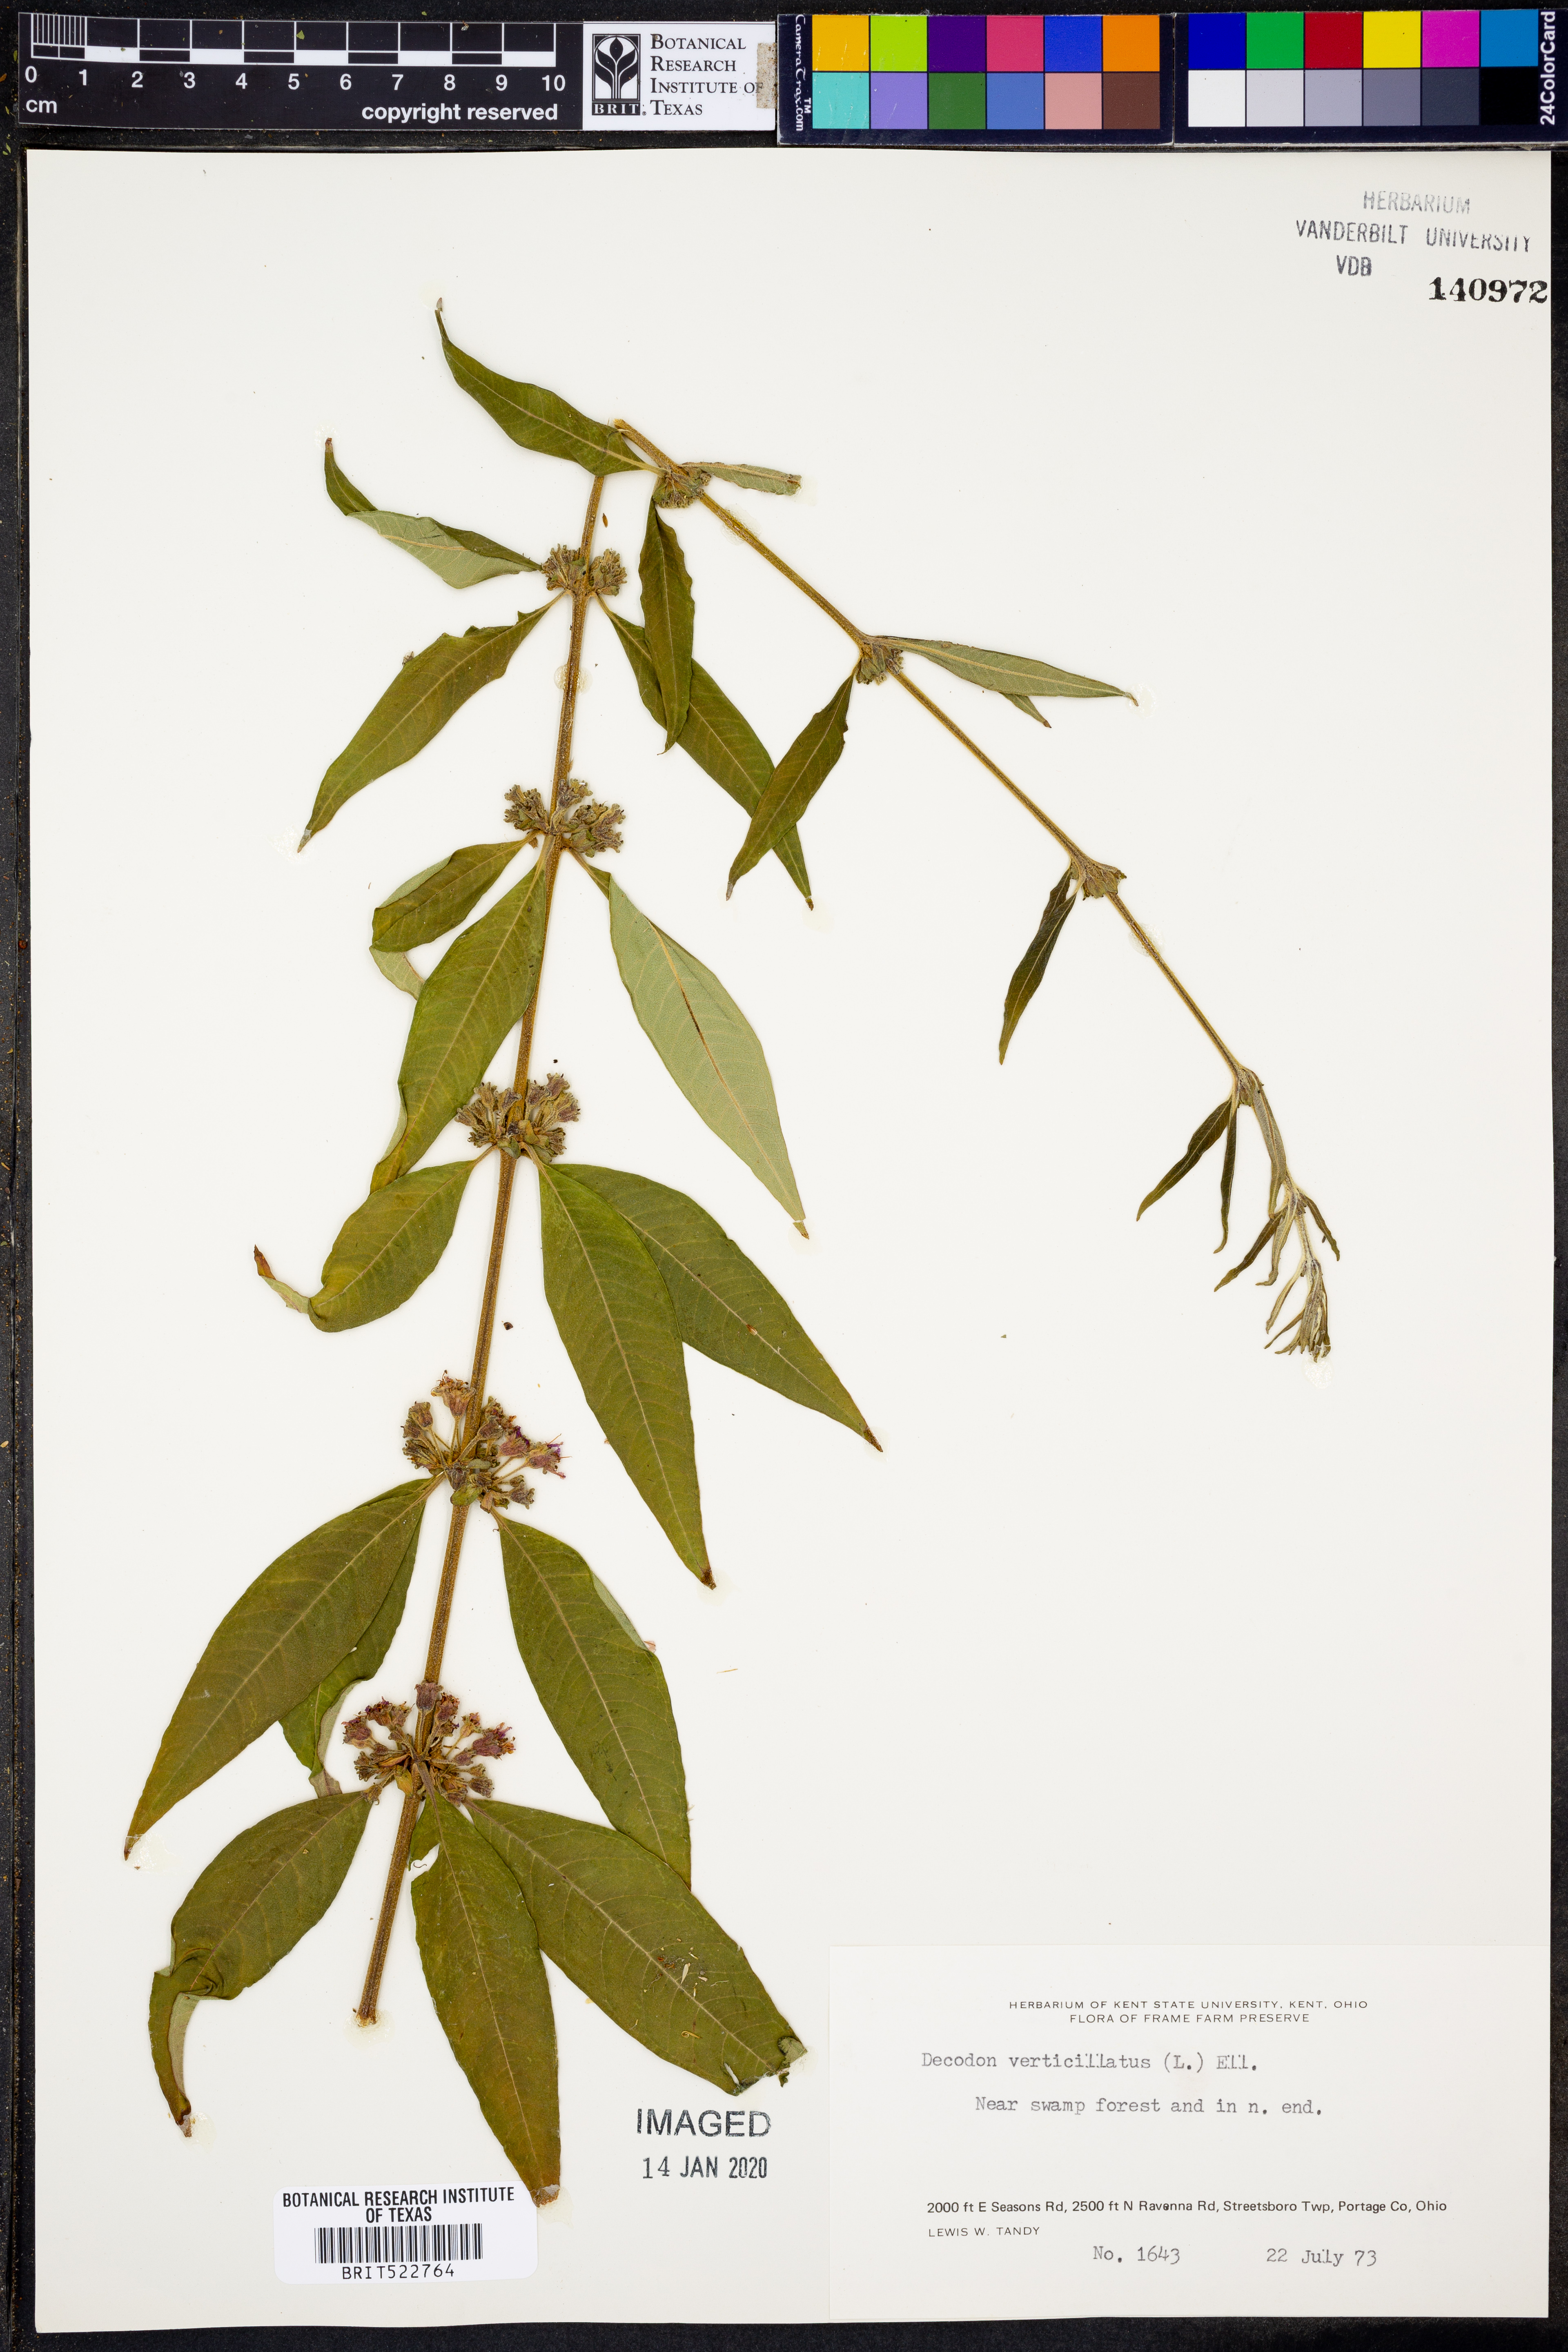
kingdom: Plantae
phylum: Tracheophyta
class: Magnoliopsida
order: Myrtales
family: Lythraceae
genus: Decodon
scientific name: Decodon verticillatus
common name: Hairy swamp loosestrife
